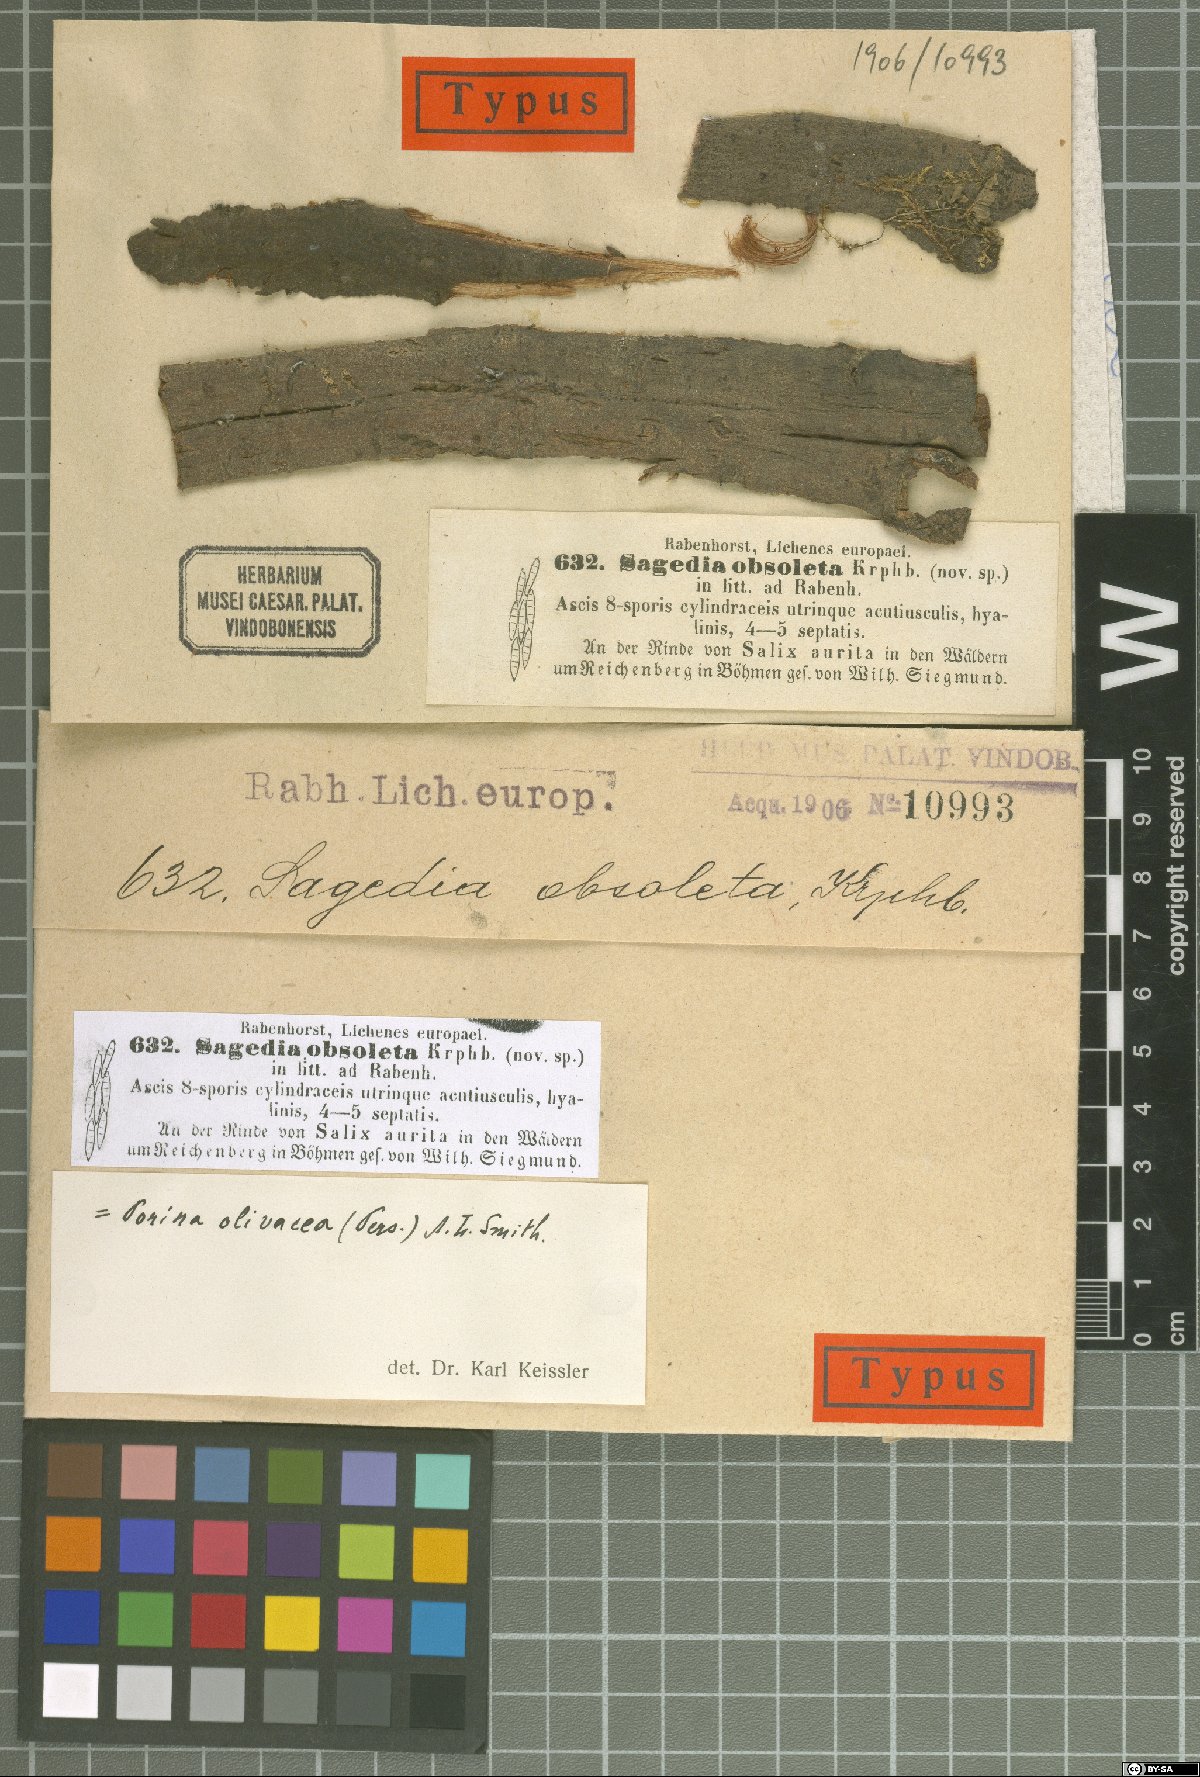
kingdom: Fungi
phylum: Ascomycota
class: Lecanoromycetes
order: Ostropales
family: Porinaceae
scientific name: Porinaceae
